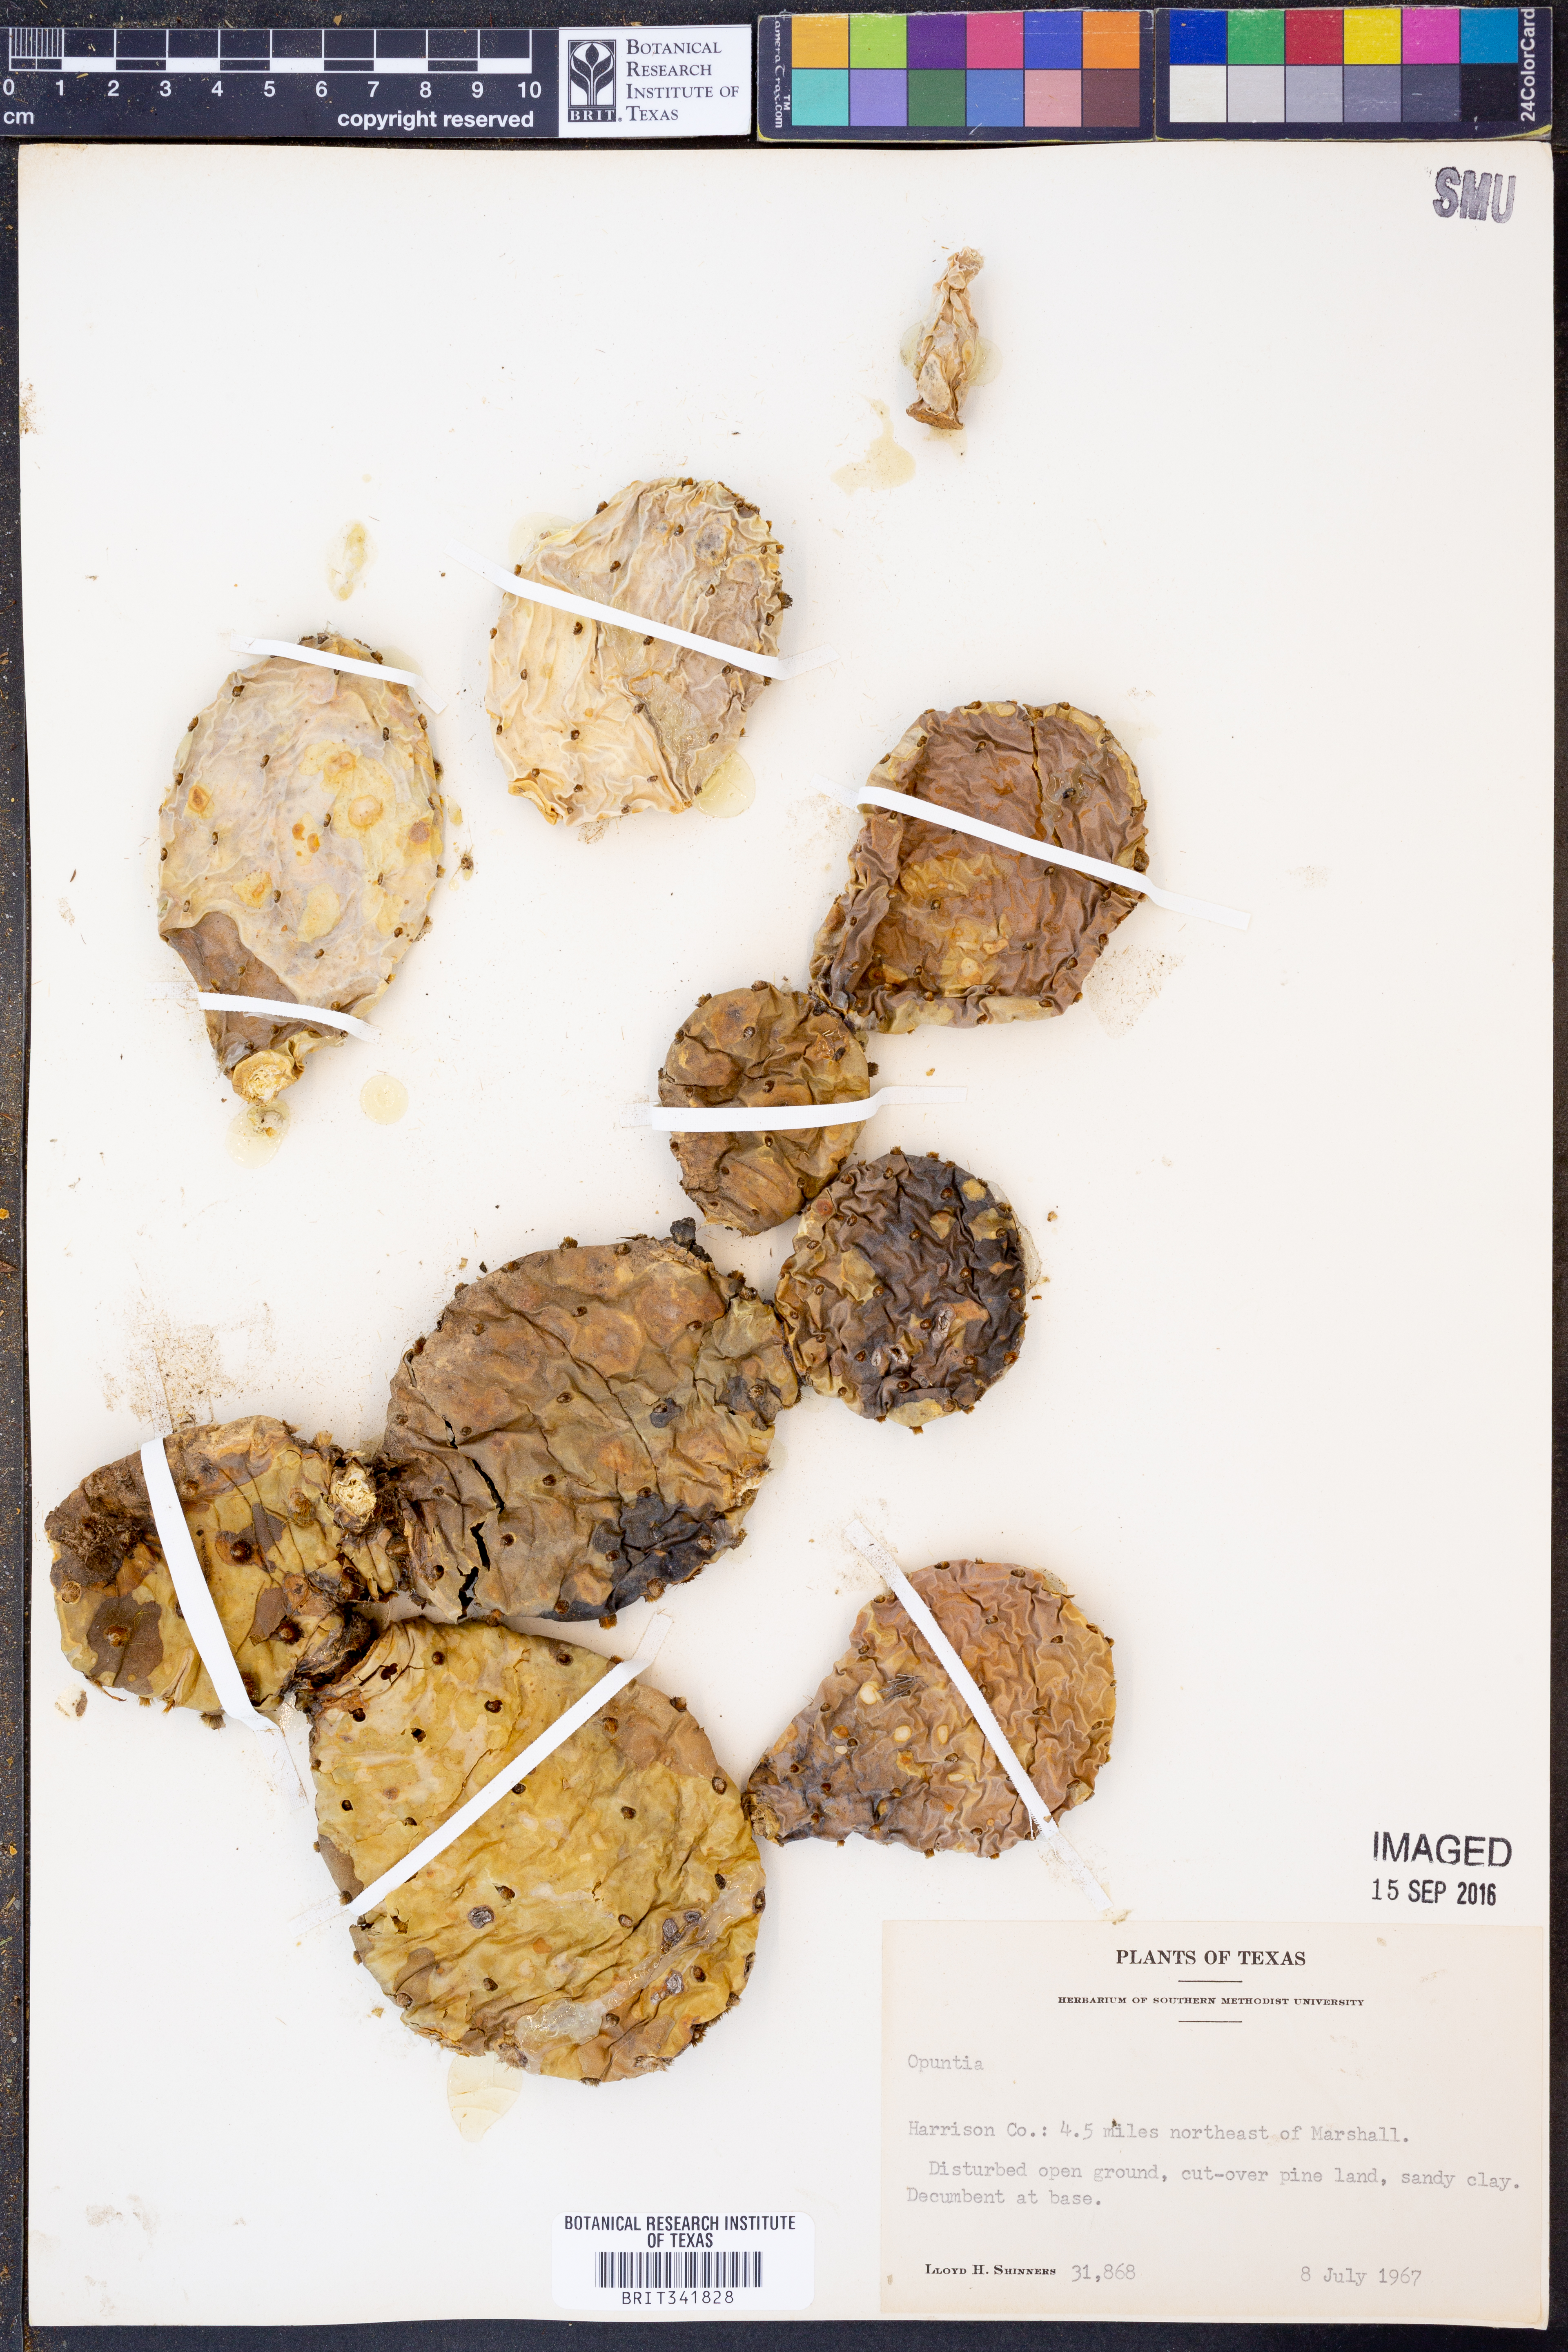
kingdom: Plantae
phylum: Tracheophyta
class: Magnoliopsida
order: Caryophyllales
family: Cactaceae
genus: Opuntia
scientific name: Opuntia
